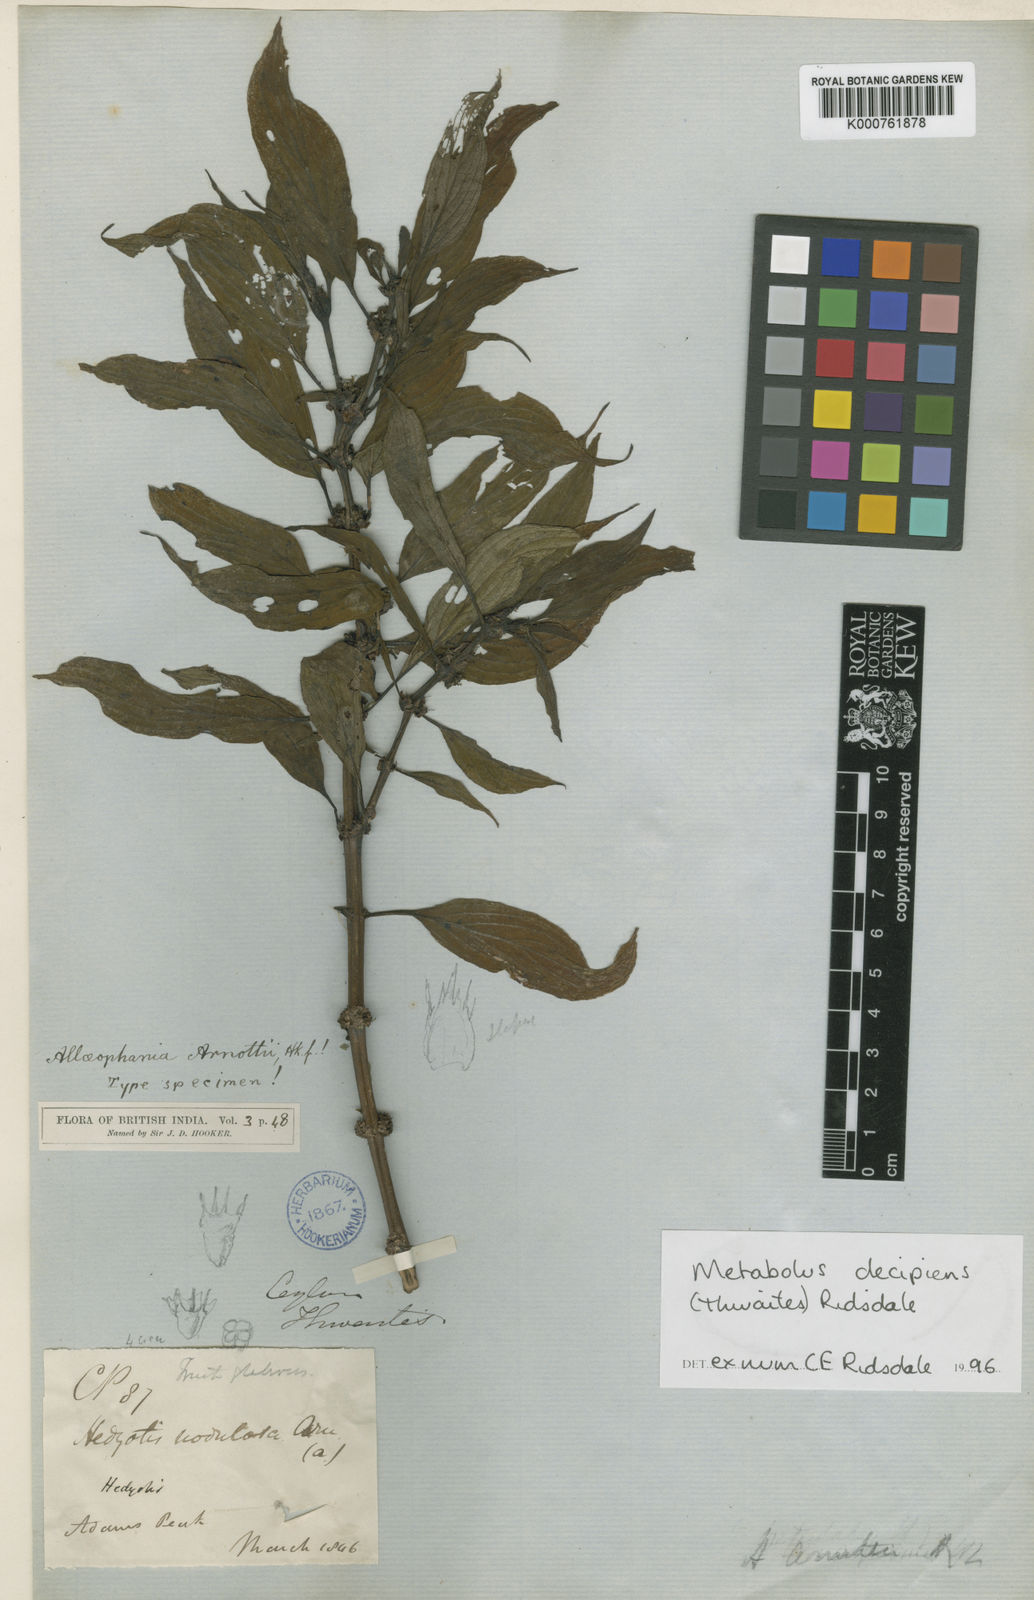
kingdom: Plantae
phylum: Tracheophyta
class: Magnoliopsida
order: Gentianales
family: Rubiaceae
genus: Hedyotis
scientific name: Hedyotis
